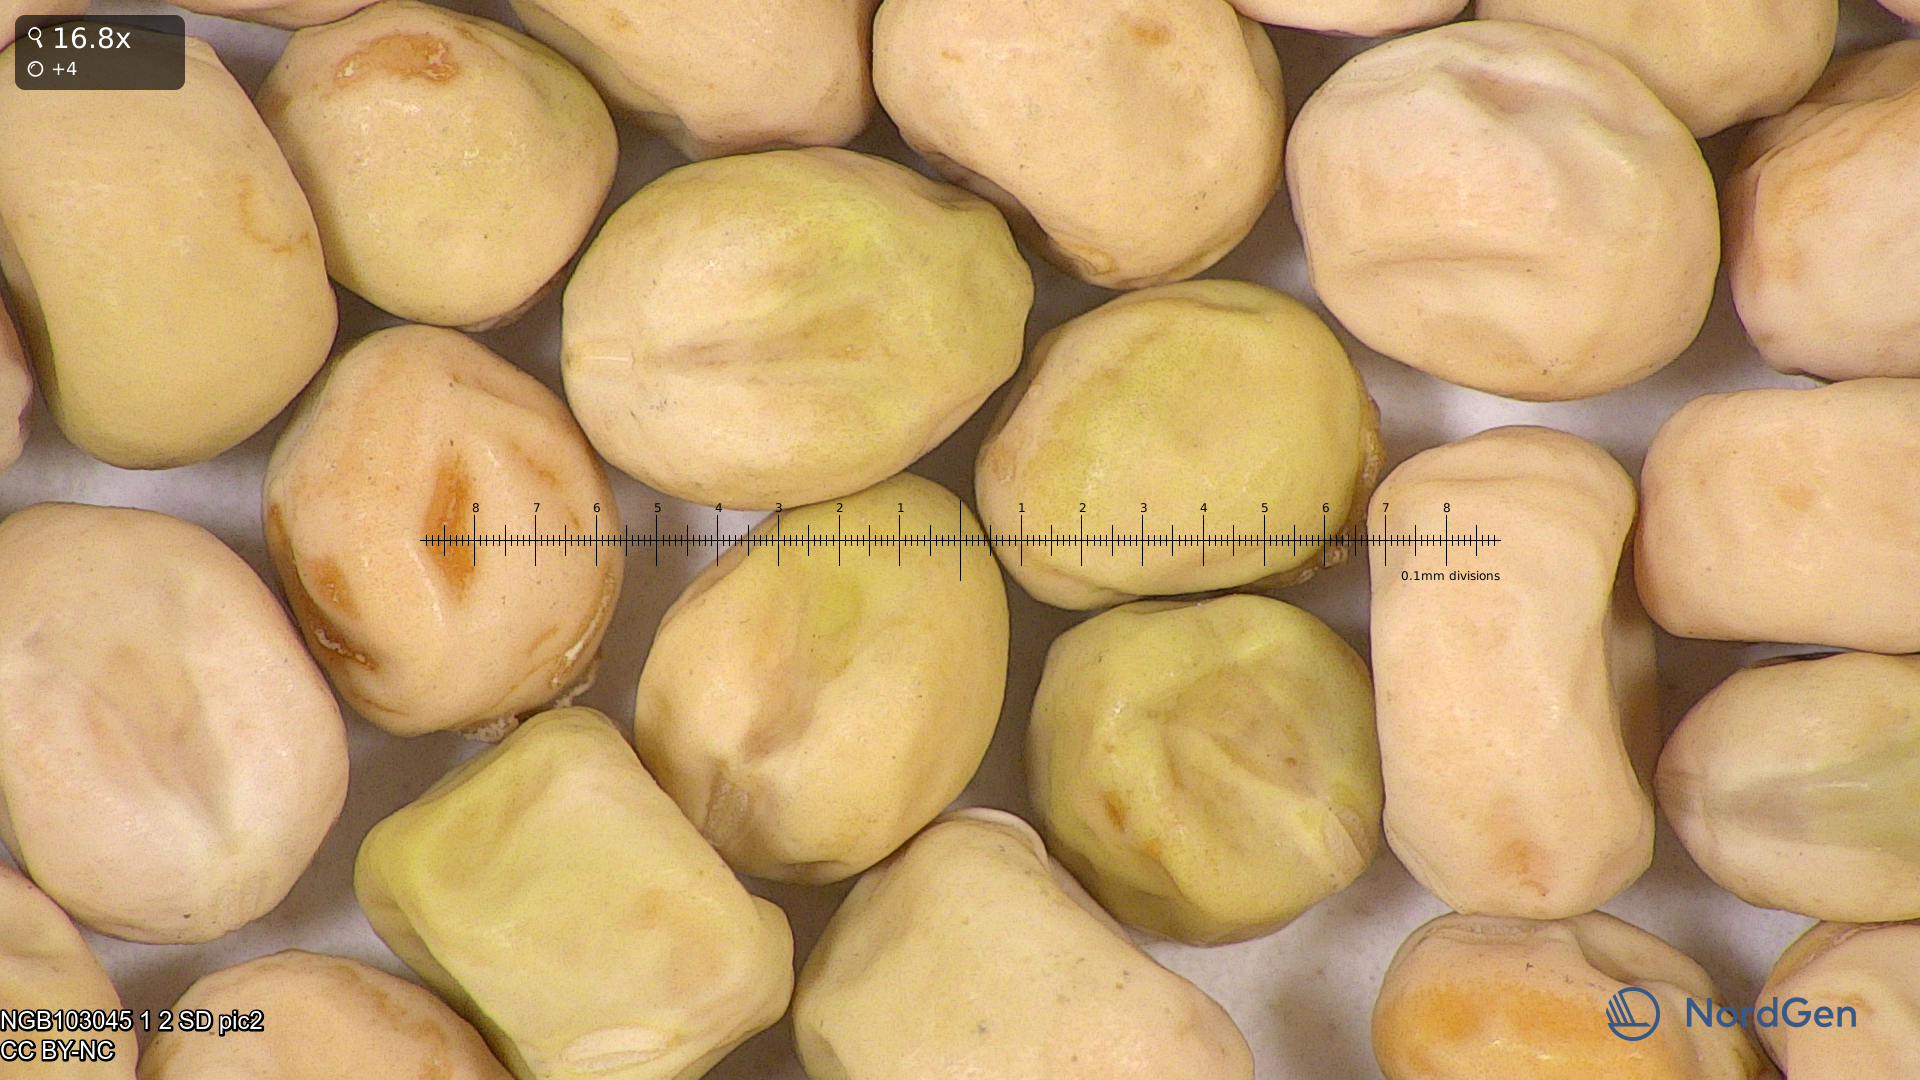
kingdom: Plantae
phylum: Tracheophyta
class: Magnoliopsida
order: Fabales
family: Fabaceae
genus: Lathyrus
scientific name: Lathyrus oleraceus
